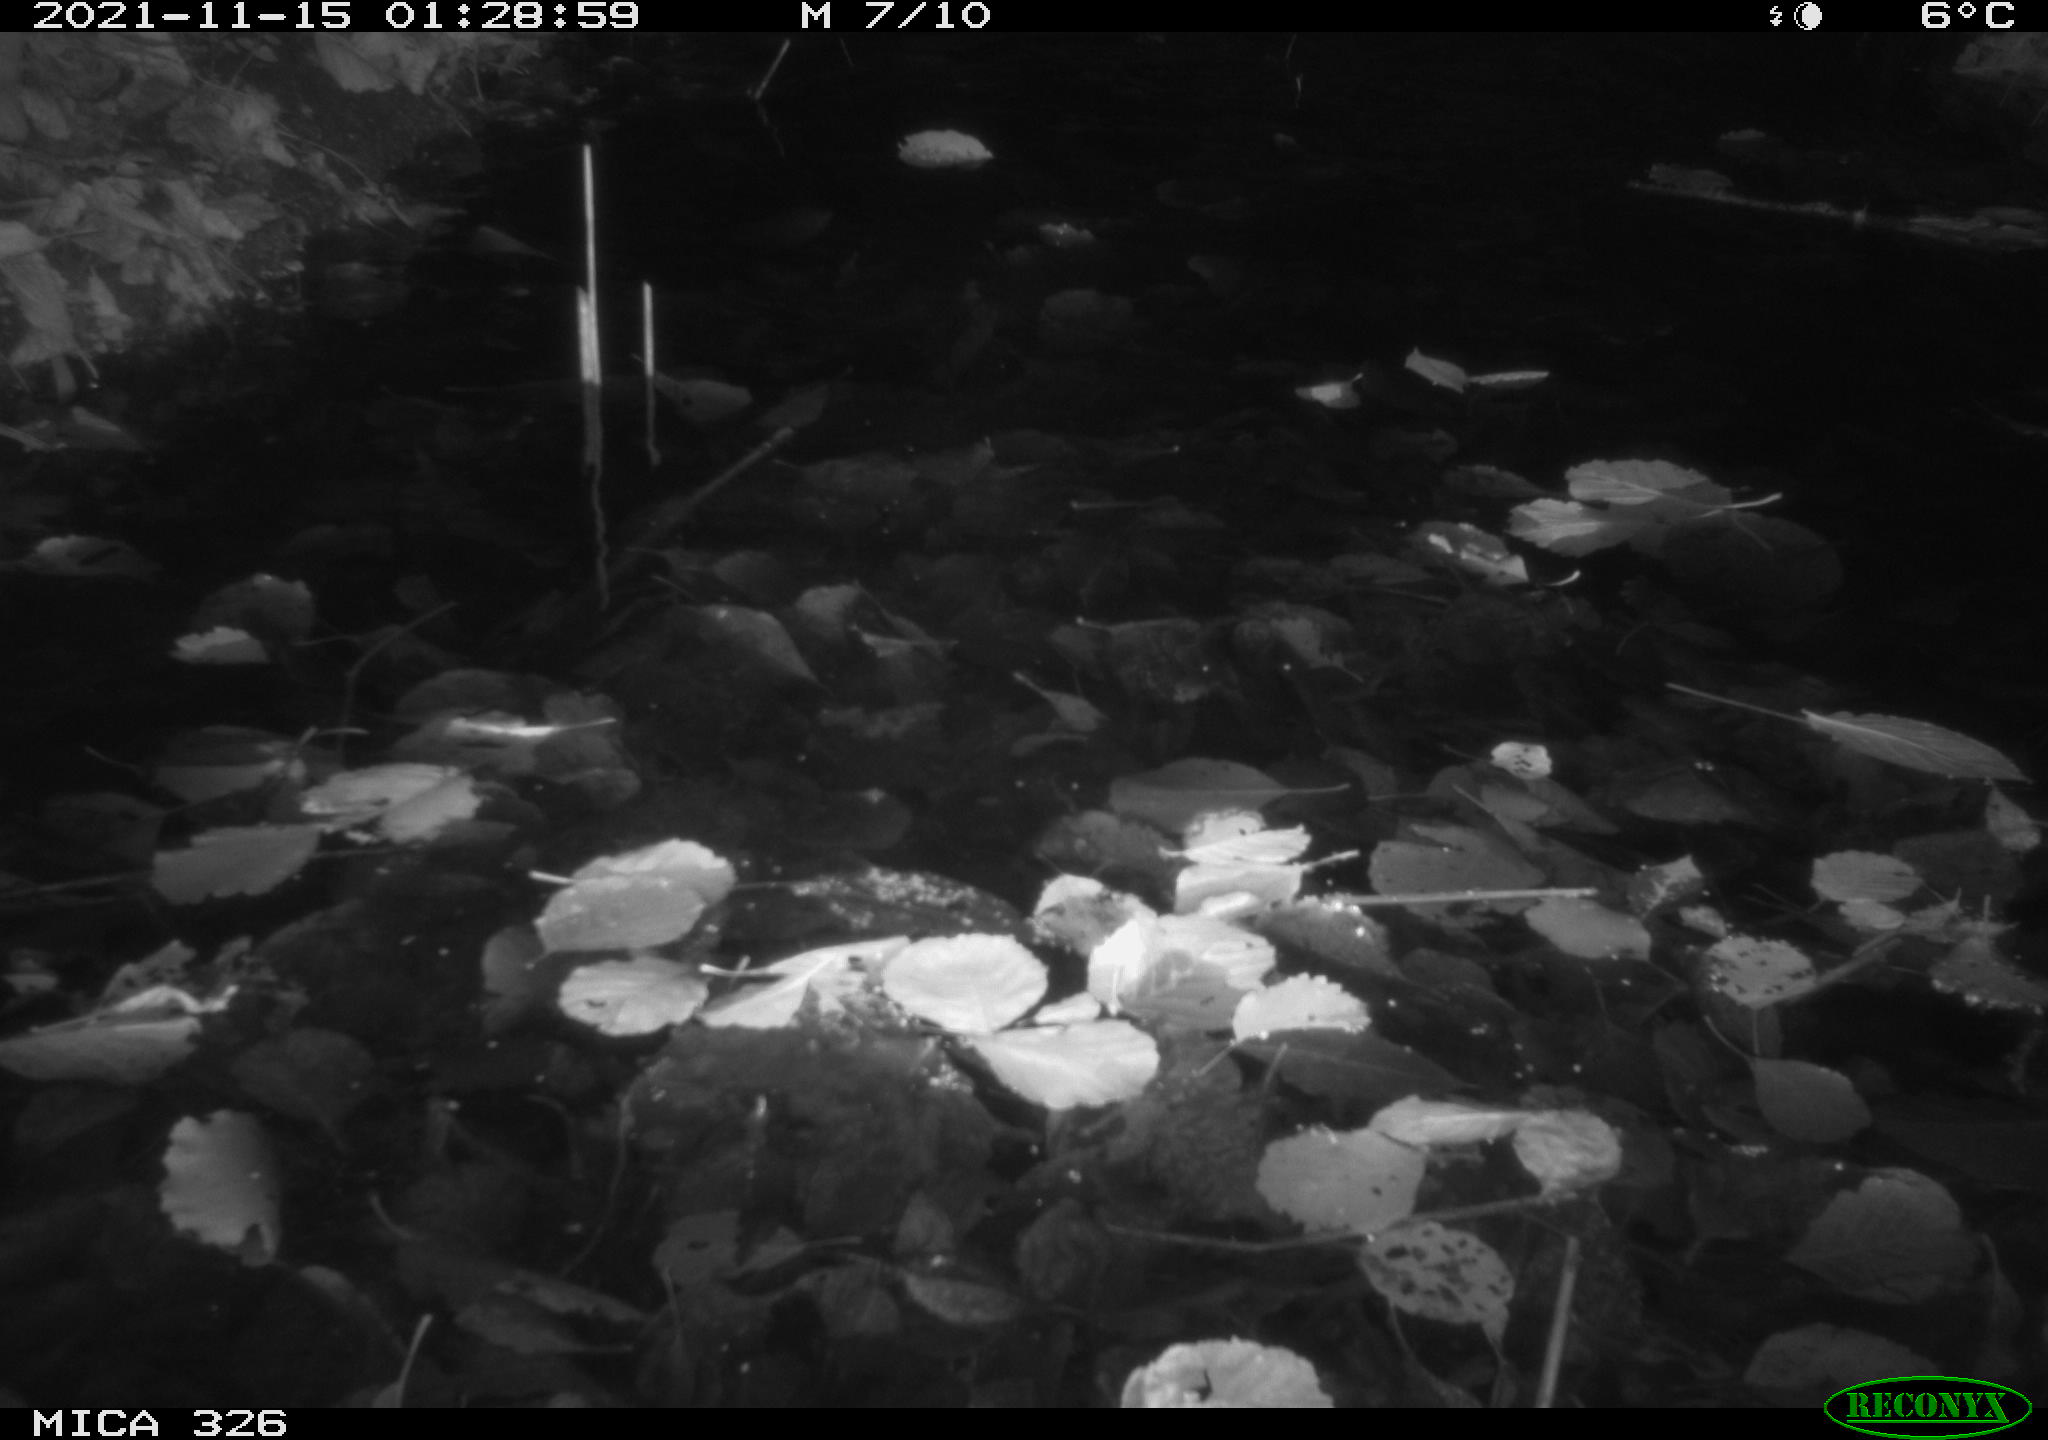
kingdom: Animalia
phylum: Chordata
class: Mammalia
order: Rodentia
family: Cricetidae
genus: Ondatra
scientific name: Ondatra zibethicus
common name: Muskrat
